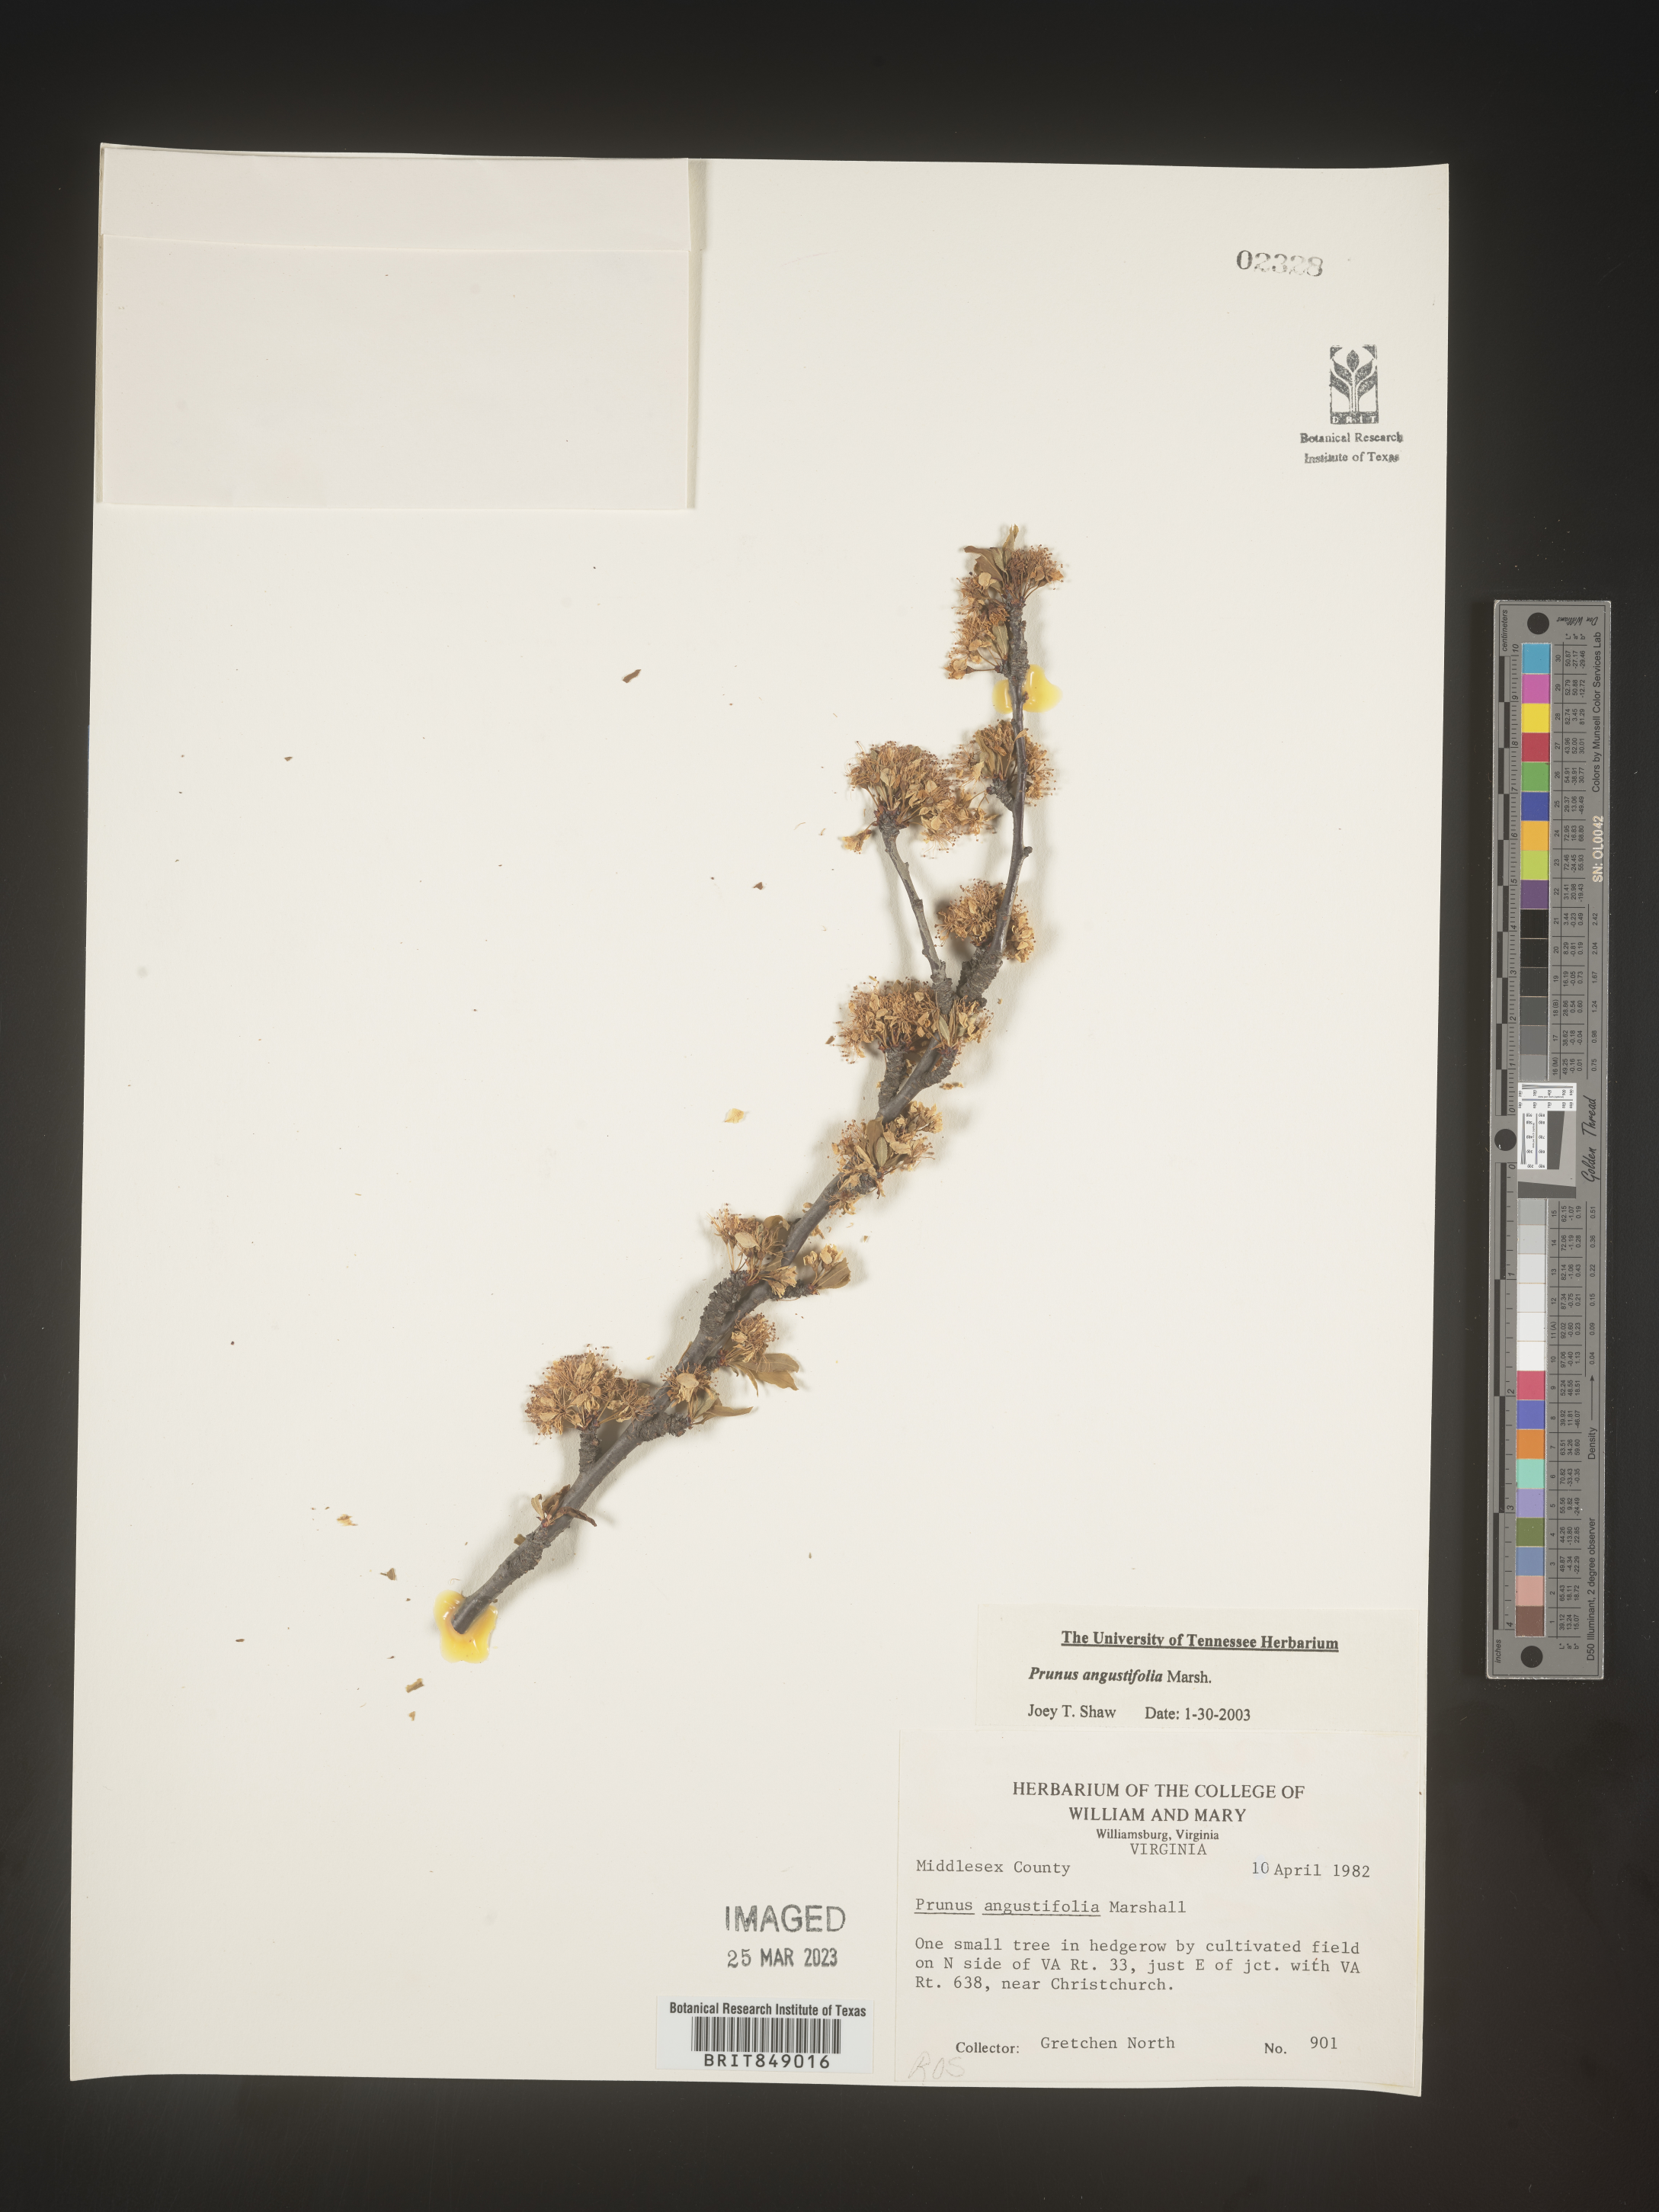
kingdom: Plantae
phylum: Tracheophyta
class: Magnoliopsida
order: Rosales
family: Rosaceae
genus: Prunus
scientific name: Prunus angustifolia
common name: Cherokee plum
